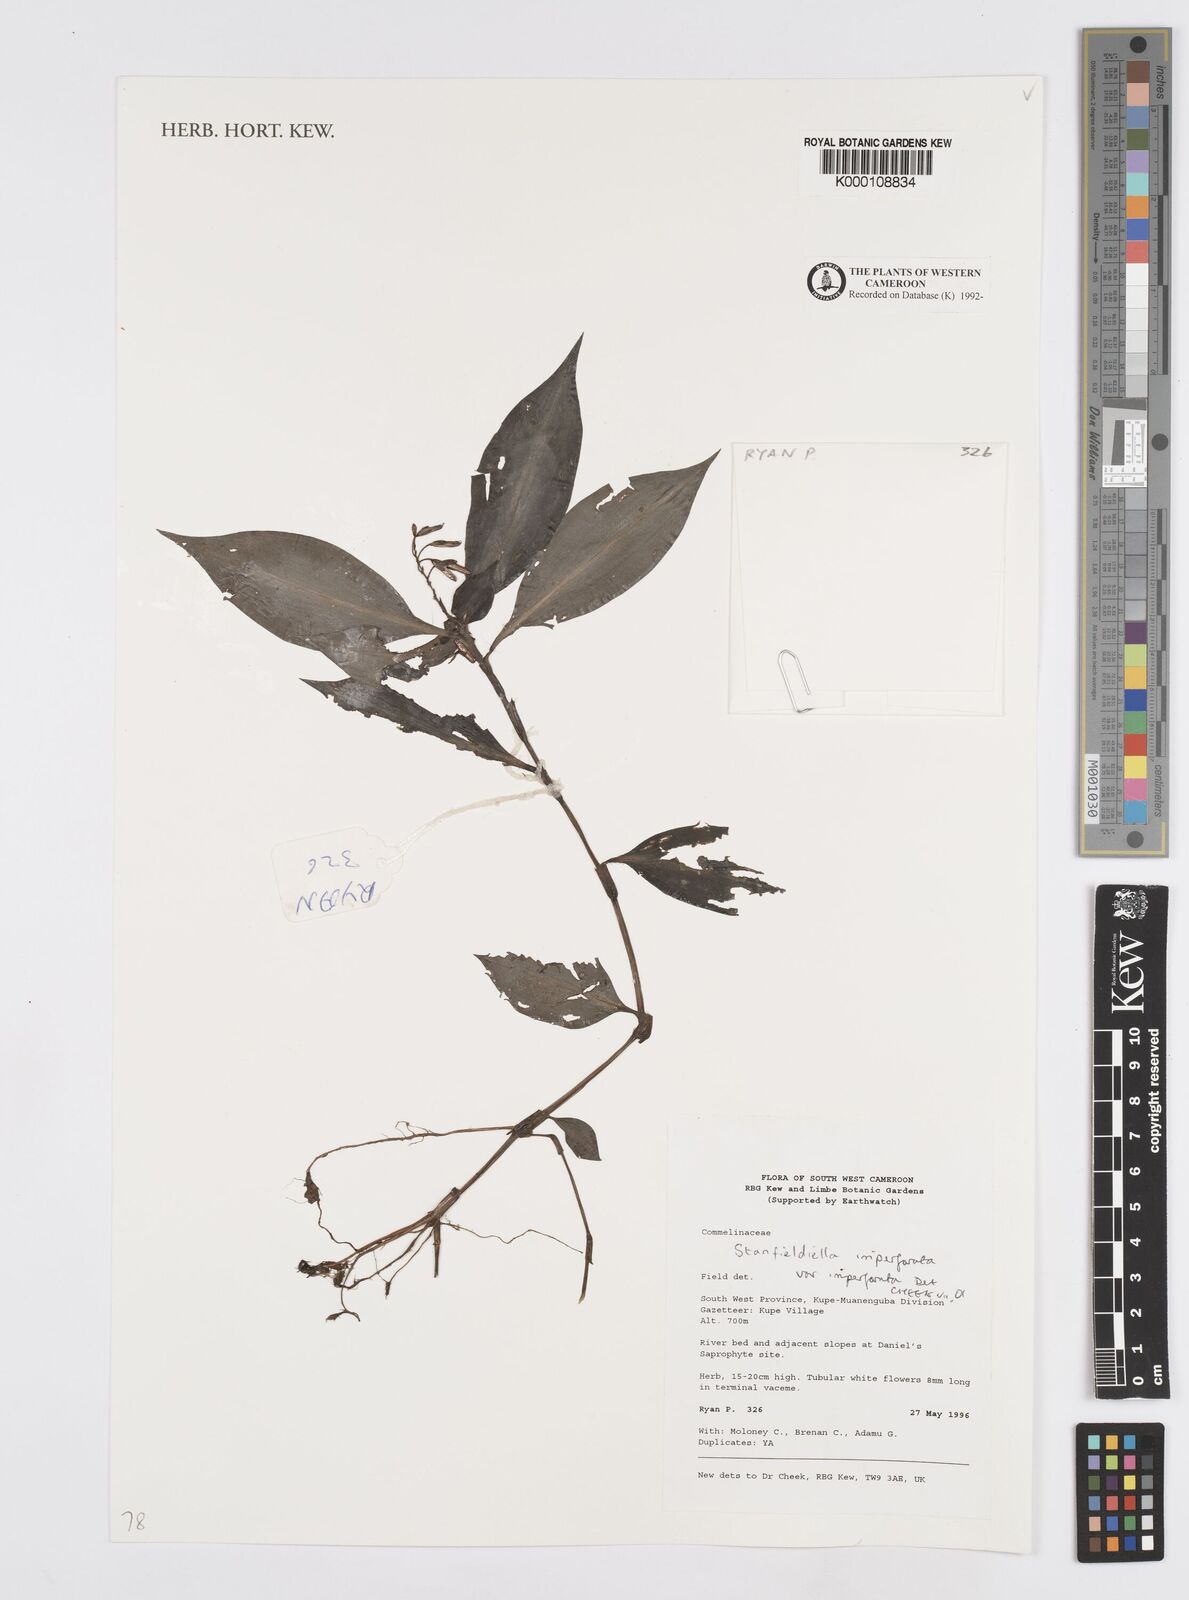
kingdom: Plantae
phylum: Tracheophyta
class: Liliopsida
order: Commelinales
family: Commelinaceae
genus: Stanfieldiella
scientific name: Stanfieldiella imperforata
